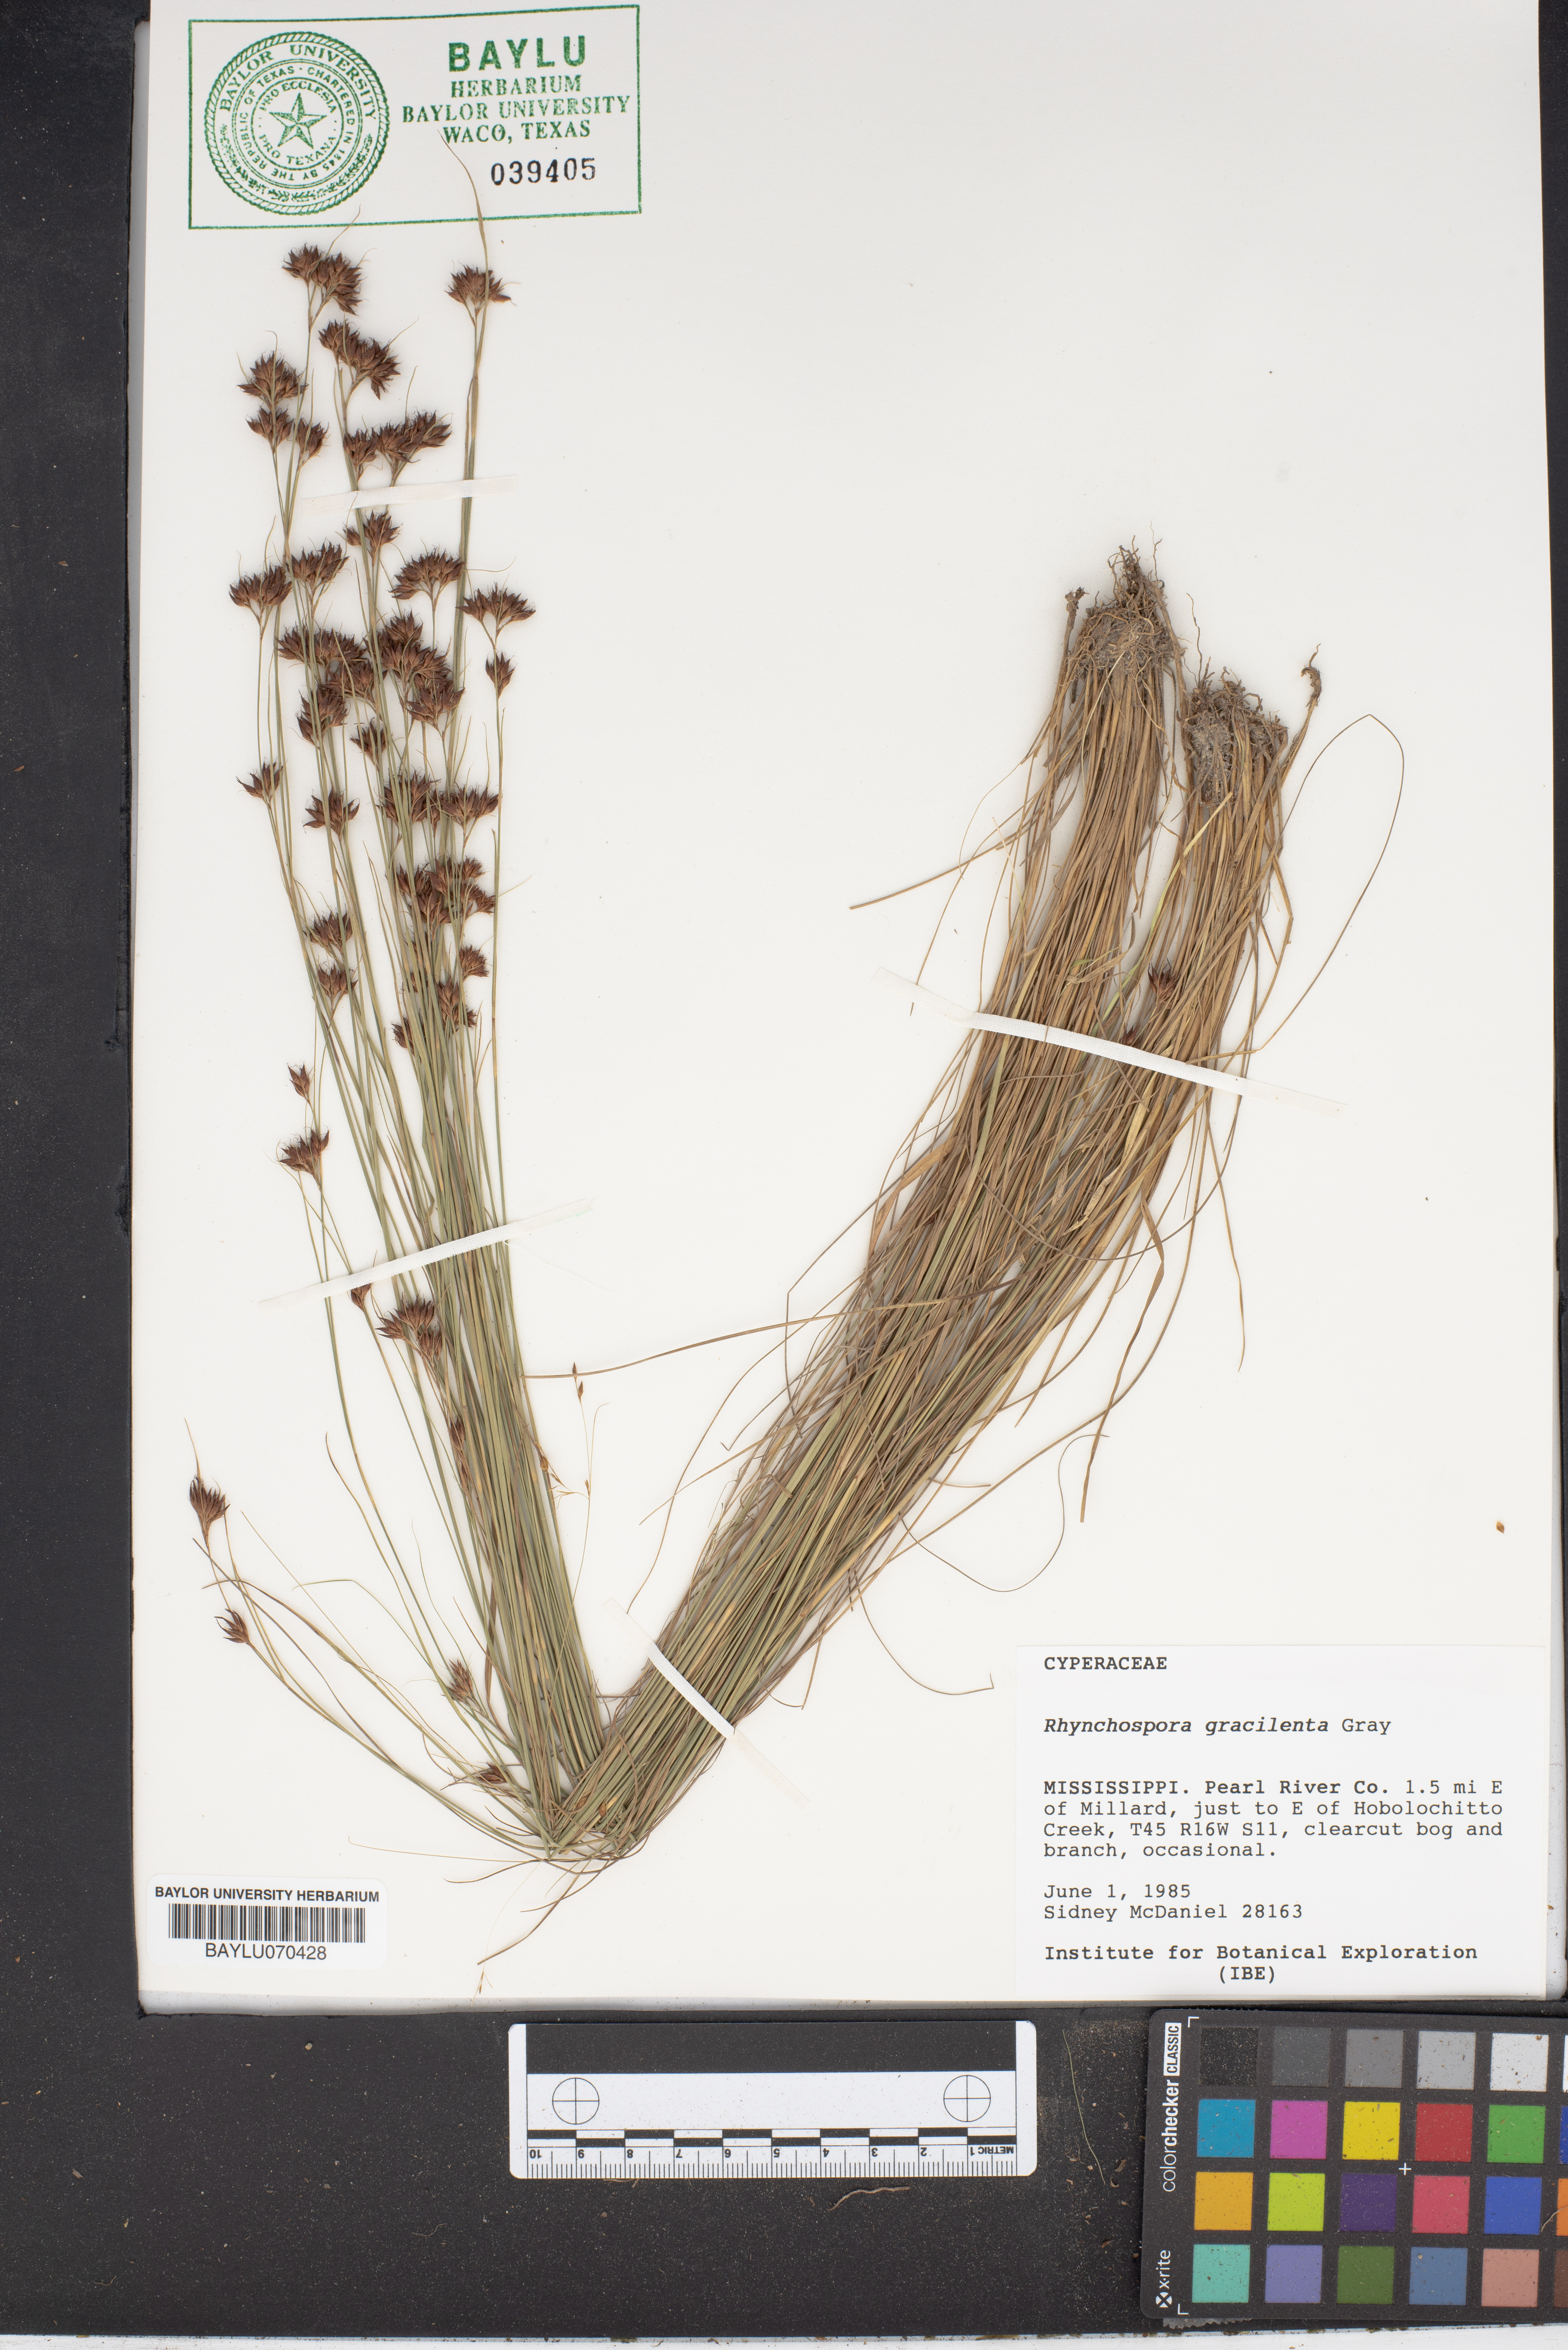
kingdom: Plantae
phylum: Tracheophyta
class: Liliopsida
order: Poales
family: Cyperaceae
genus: Rhynchospora
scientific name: Rhynchospora gracilenta
